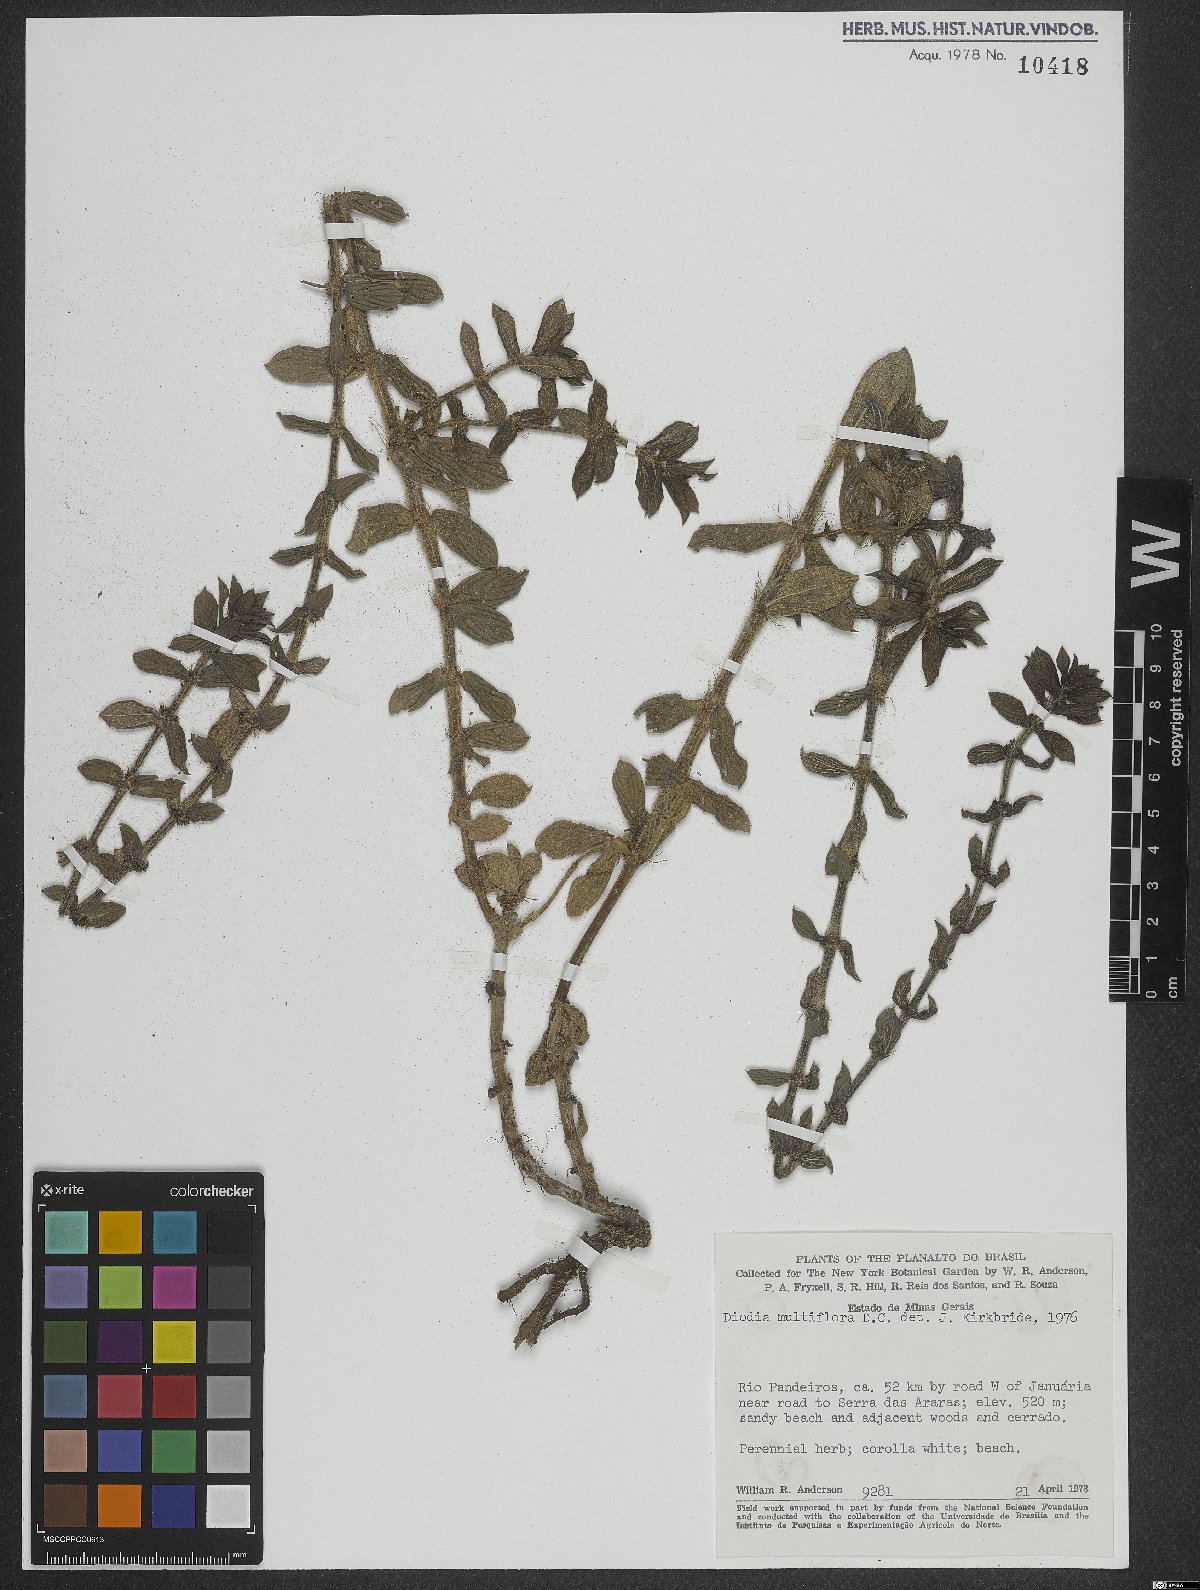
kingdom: Plantae
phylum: Tracheophyta
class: Magnoliopsida
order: Gentianales
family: Rubiaceae
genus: Spermacoce
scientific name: Spermacoce multiflora
